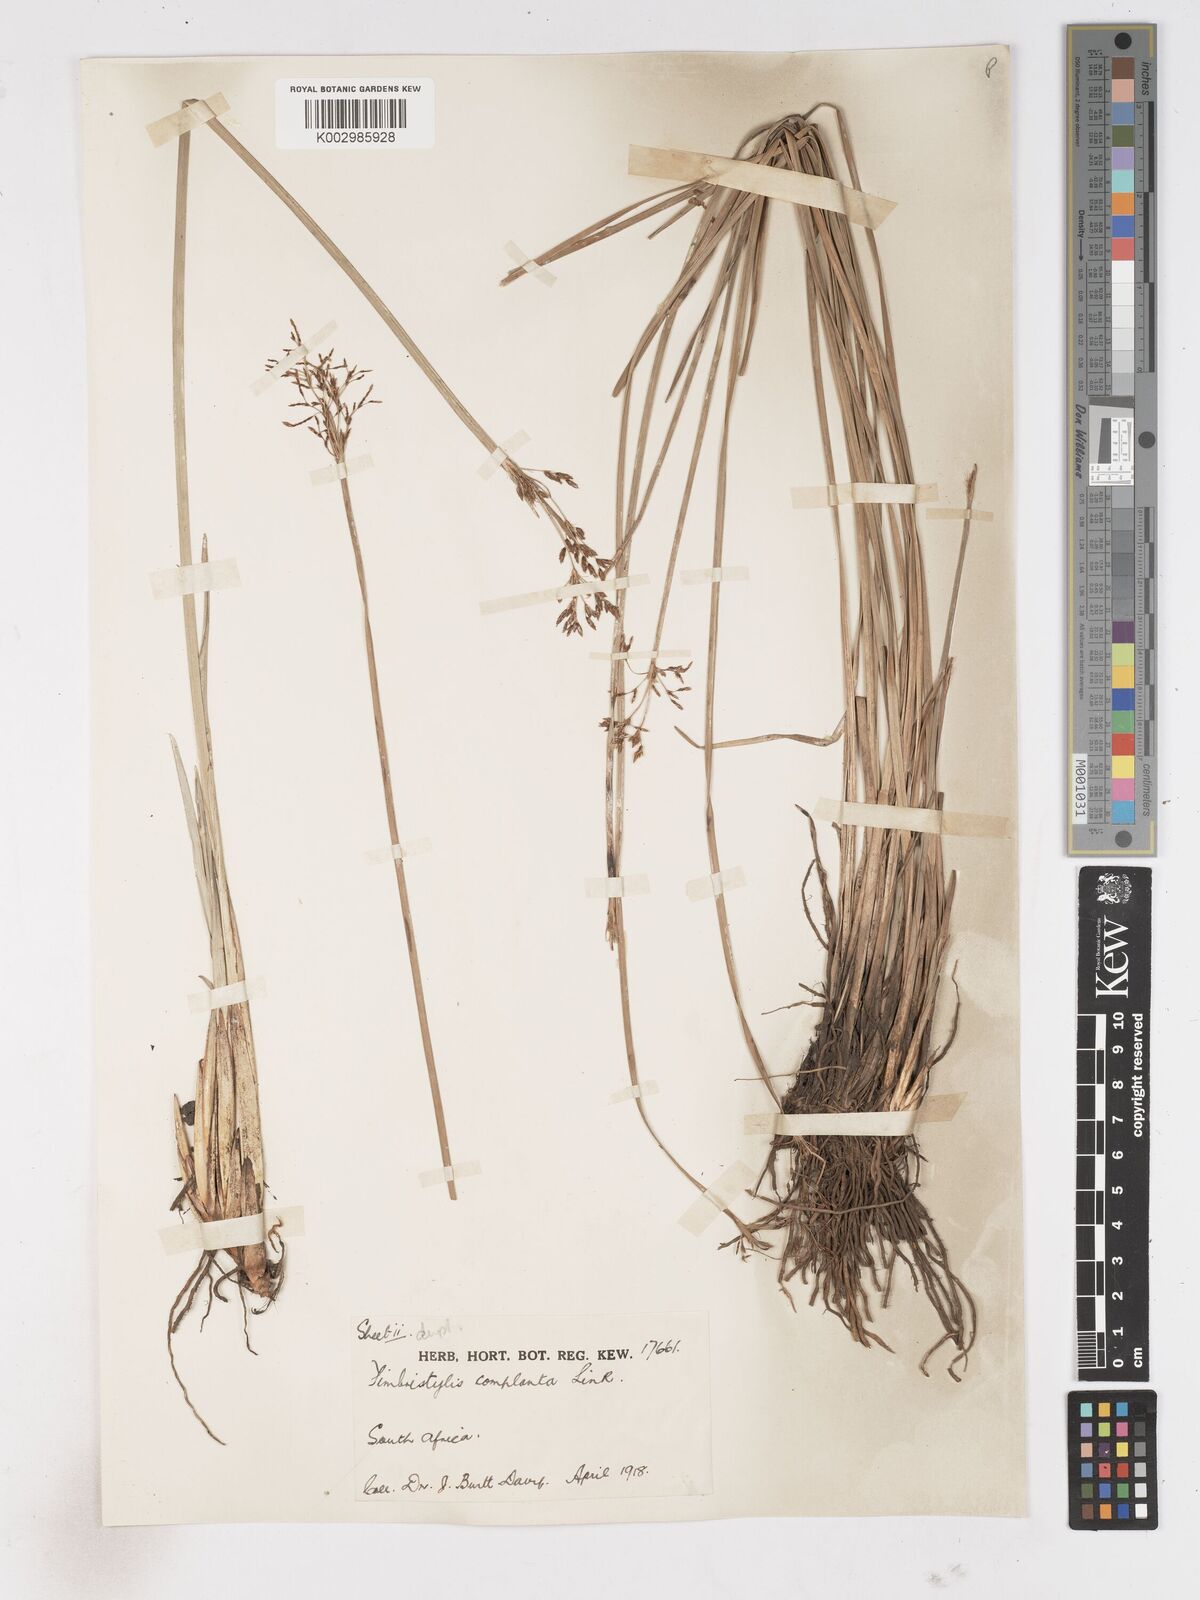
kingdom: Plantae
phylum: Tracheophyta
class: Liliopsida
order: Poales
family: Cyperaceae
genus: Fimbristylis
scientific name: Fimbristylis complanata
